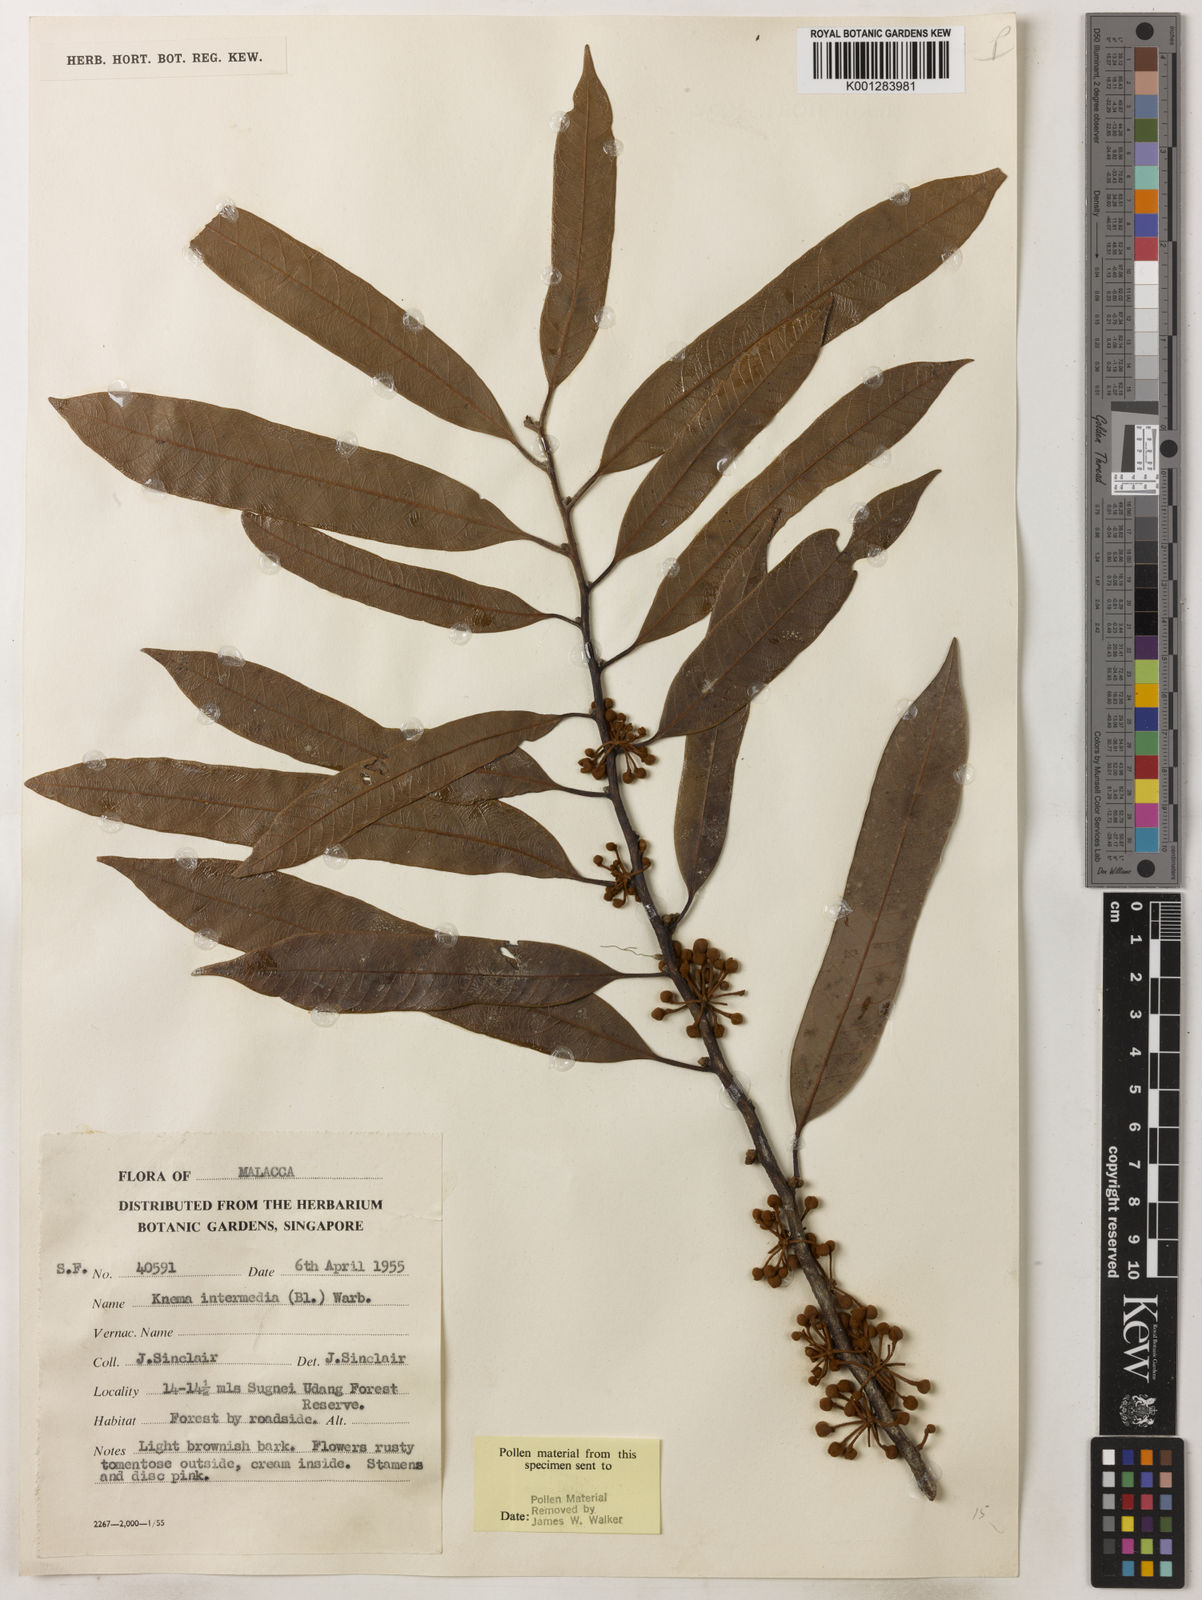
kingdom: Plantae
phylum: Tracheophyta
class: Magnoliopsida
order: Magnoliales
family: Myristicaceae
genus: Knema
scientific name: Knema intermedia
